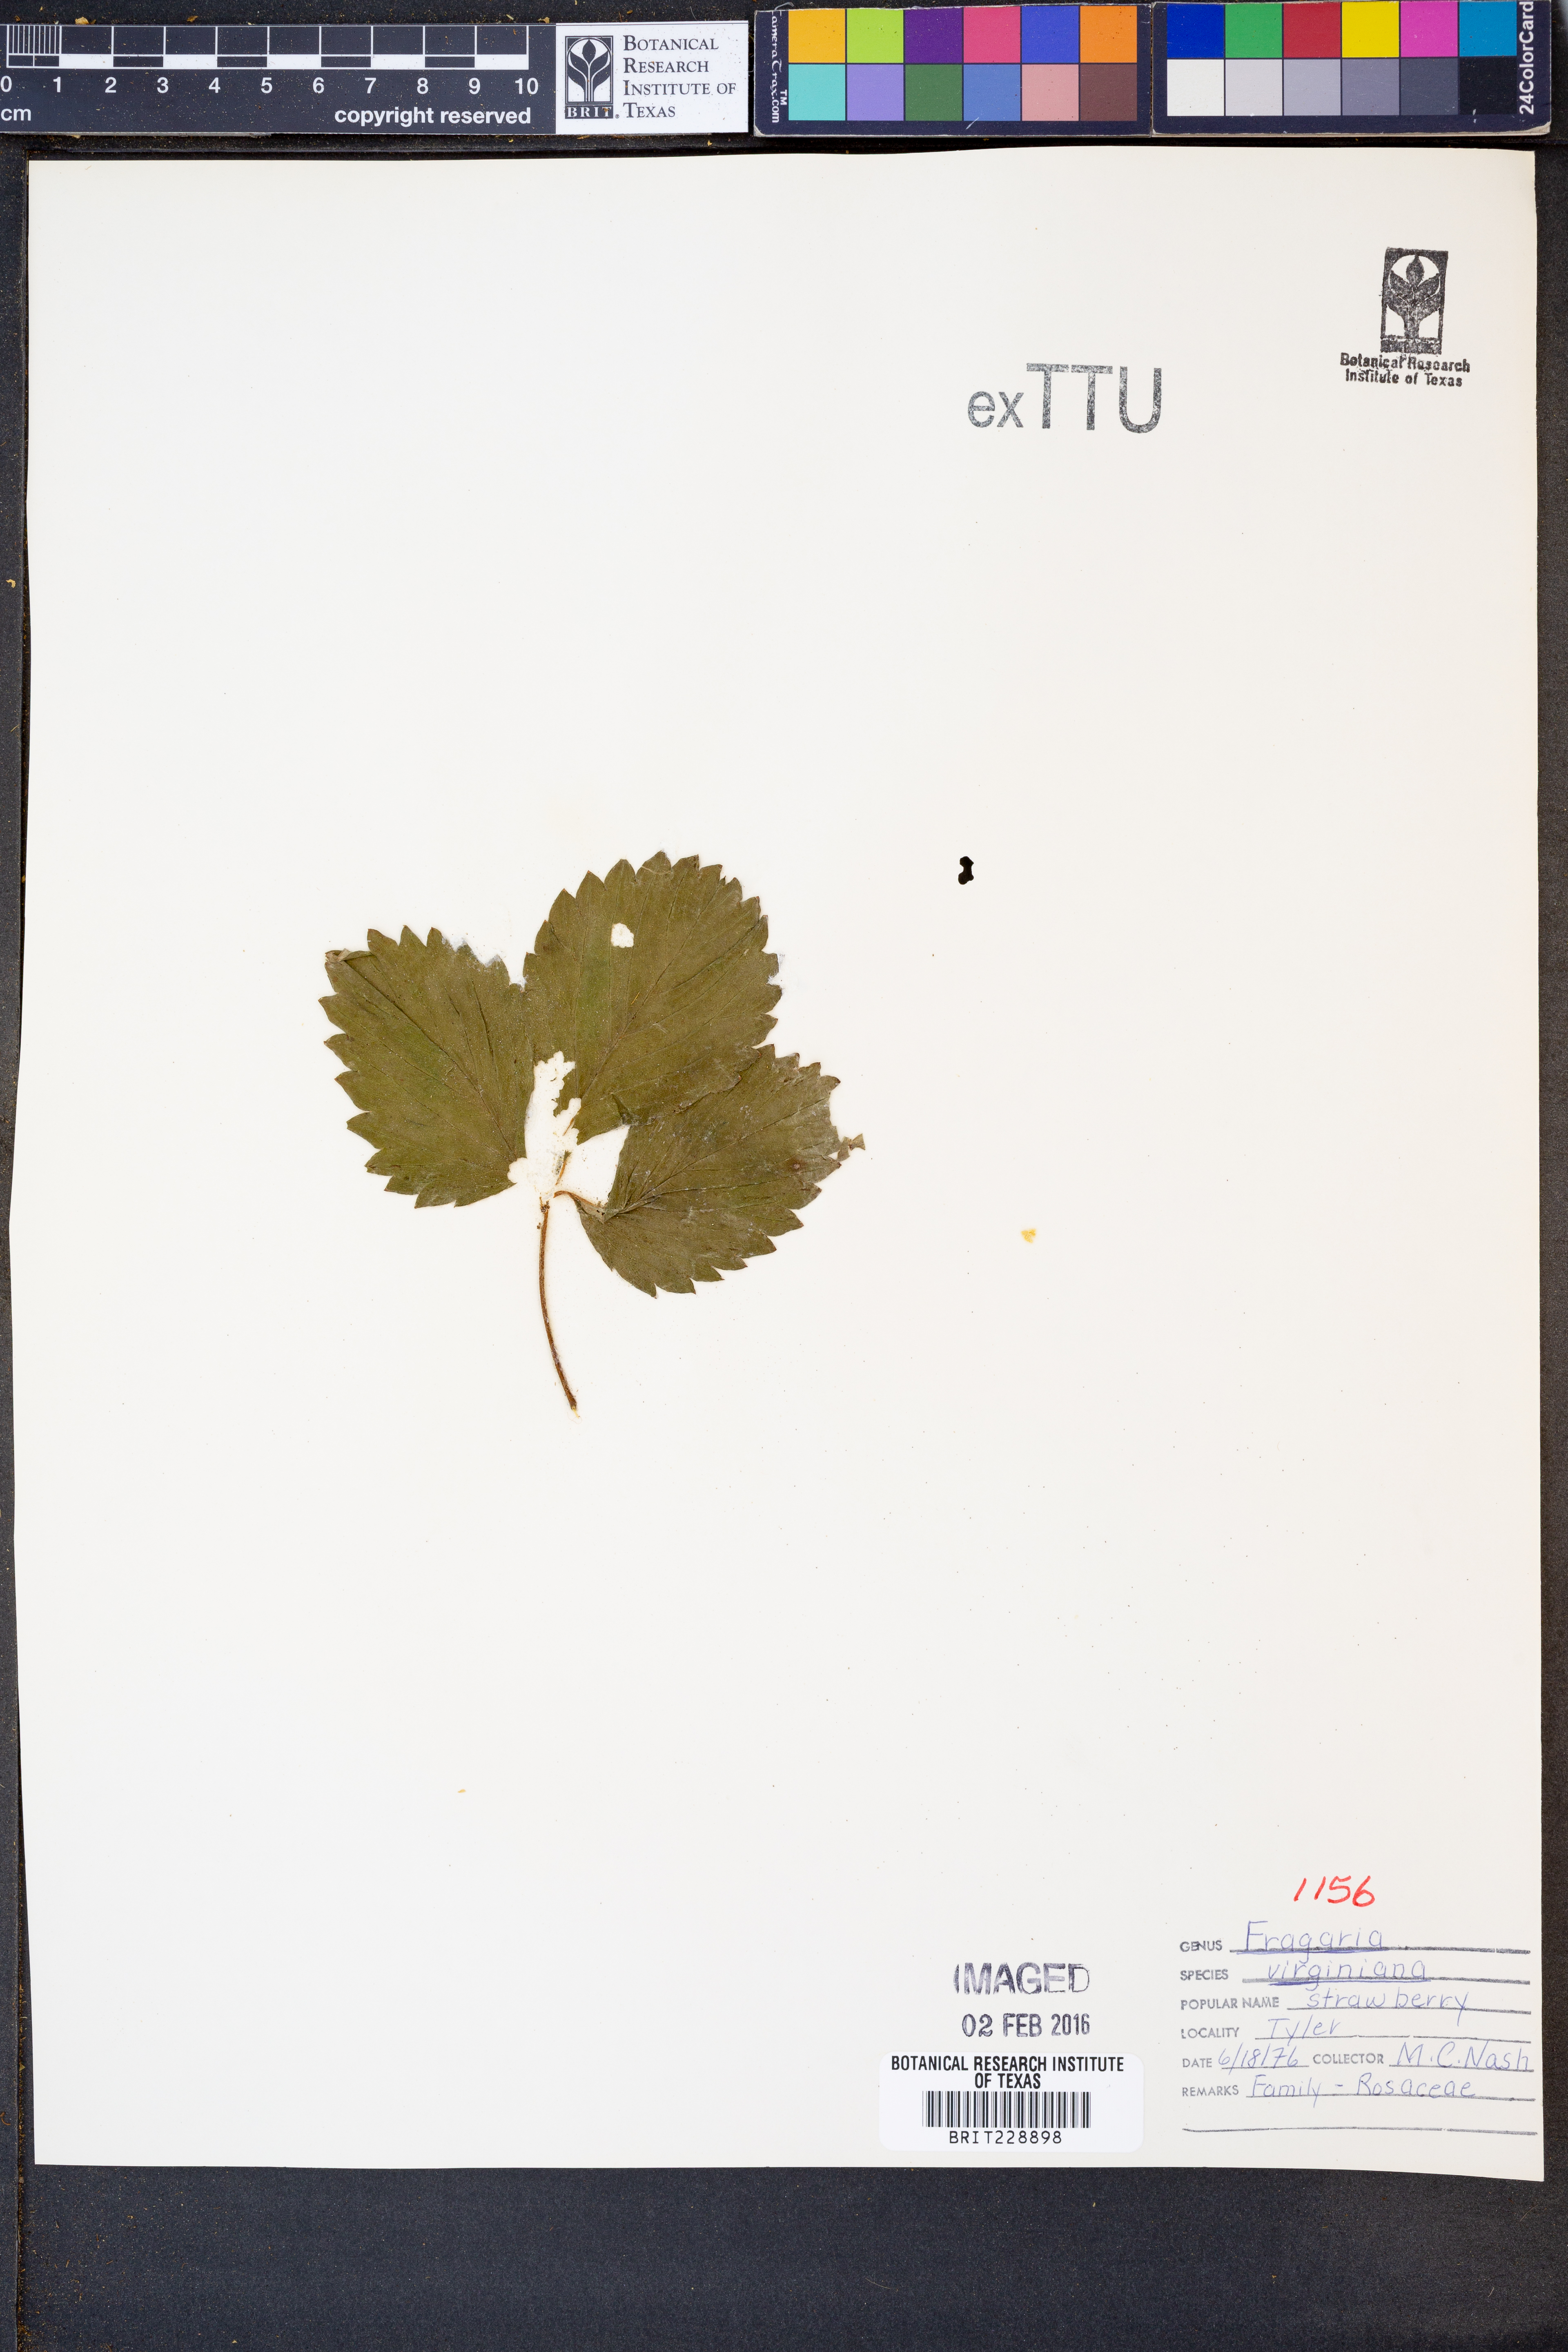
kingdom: Plantae
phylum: Tracheophyta
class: Magnoliopsida
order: Rosales
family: Rosaceae
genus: Fragaria
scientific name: Fragaria virginiana
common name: Thickleaved wild strawberry
